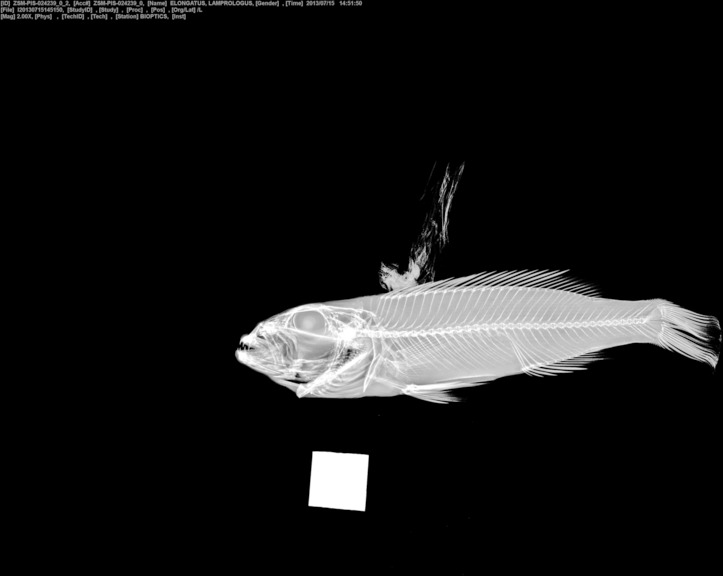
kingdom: Animalia
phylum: Chordata
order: Perciformes
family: Cichlidae
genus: Lepidiolamprologus
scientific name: Lepidiolamprologus elongatus
